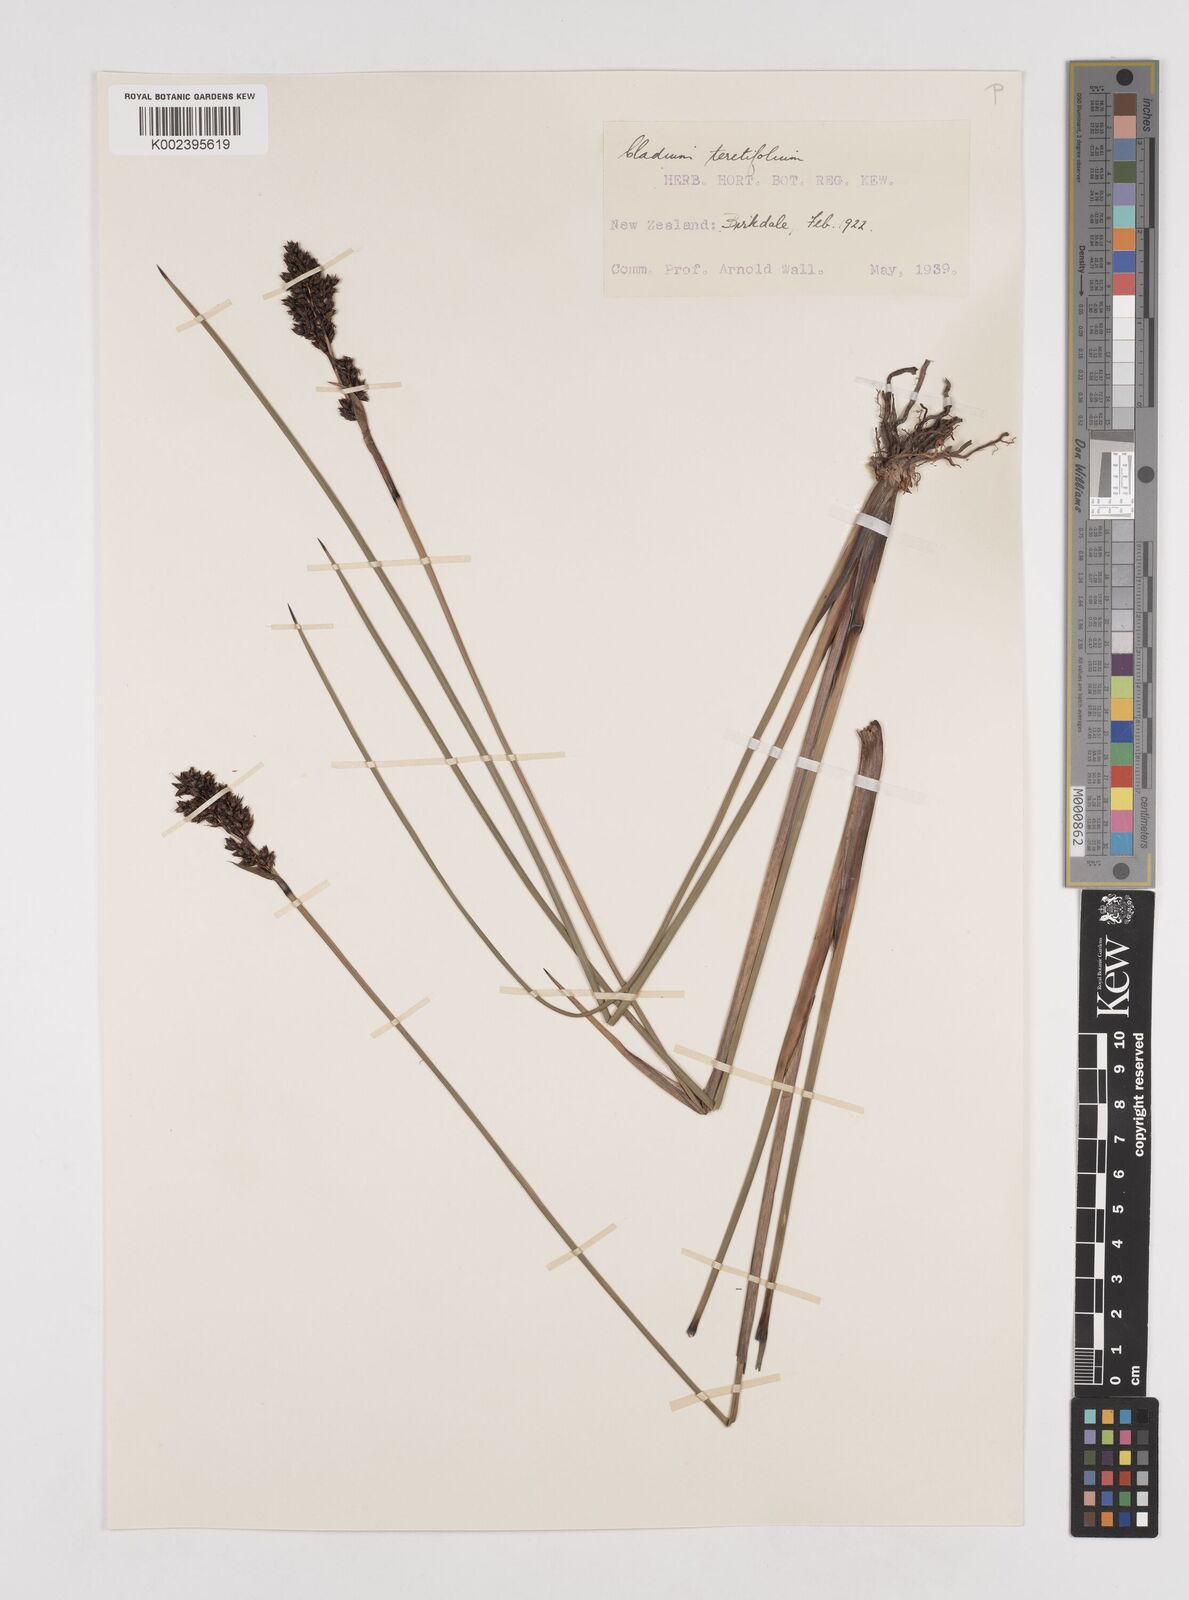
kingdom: Plantae
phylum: Tracheophyta
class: Liliopsida
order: Poales
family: Cyperaceae
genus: Machaerina
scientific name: Machaerina teretifolia
